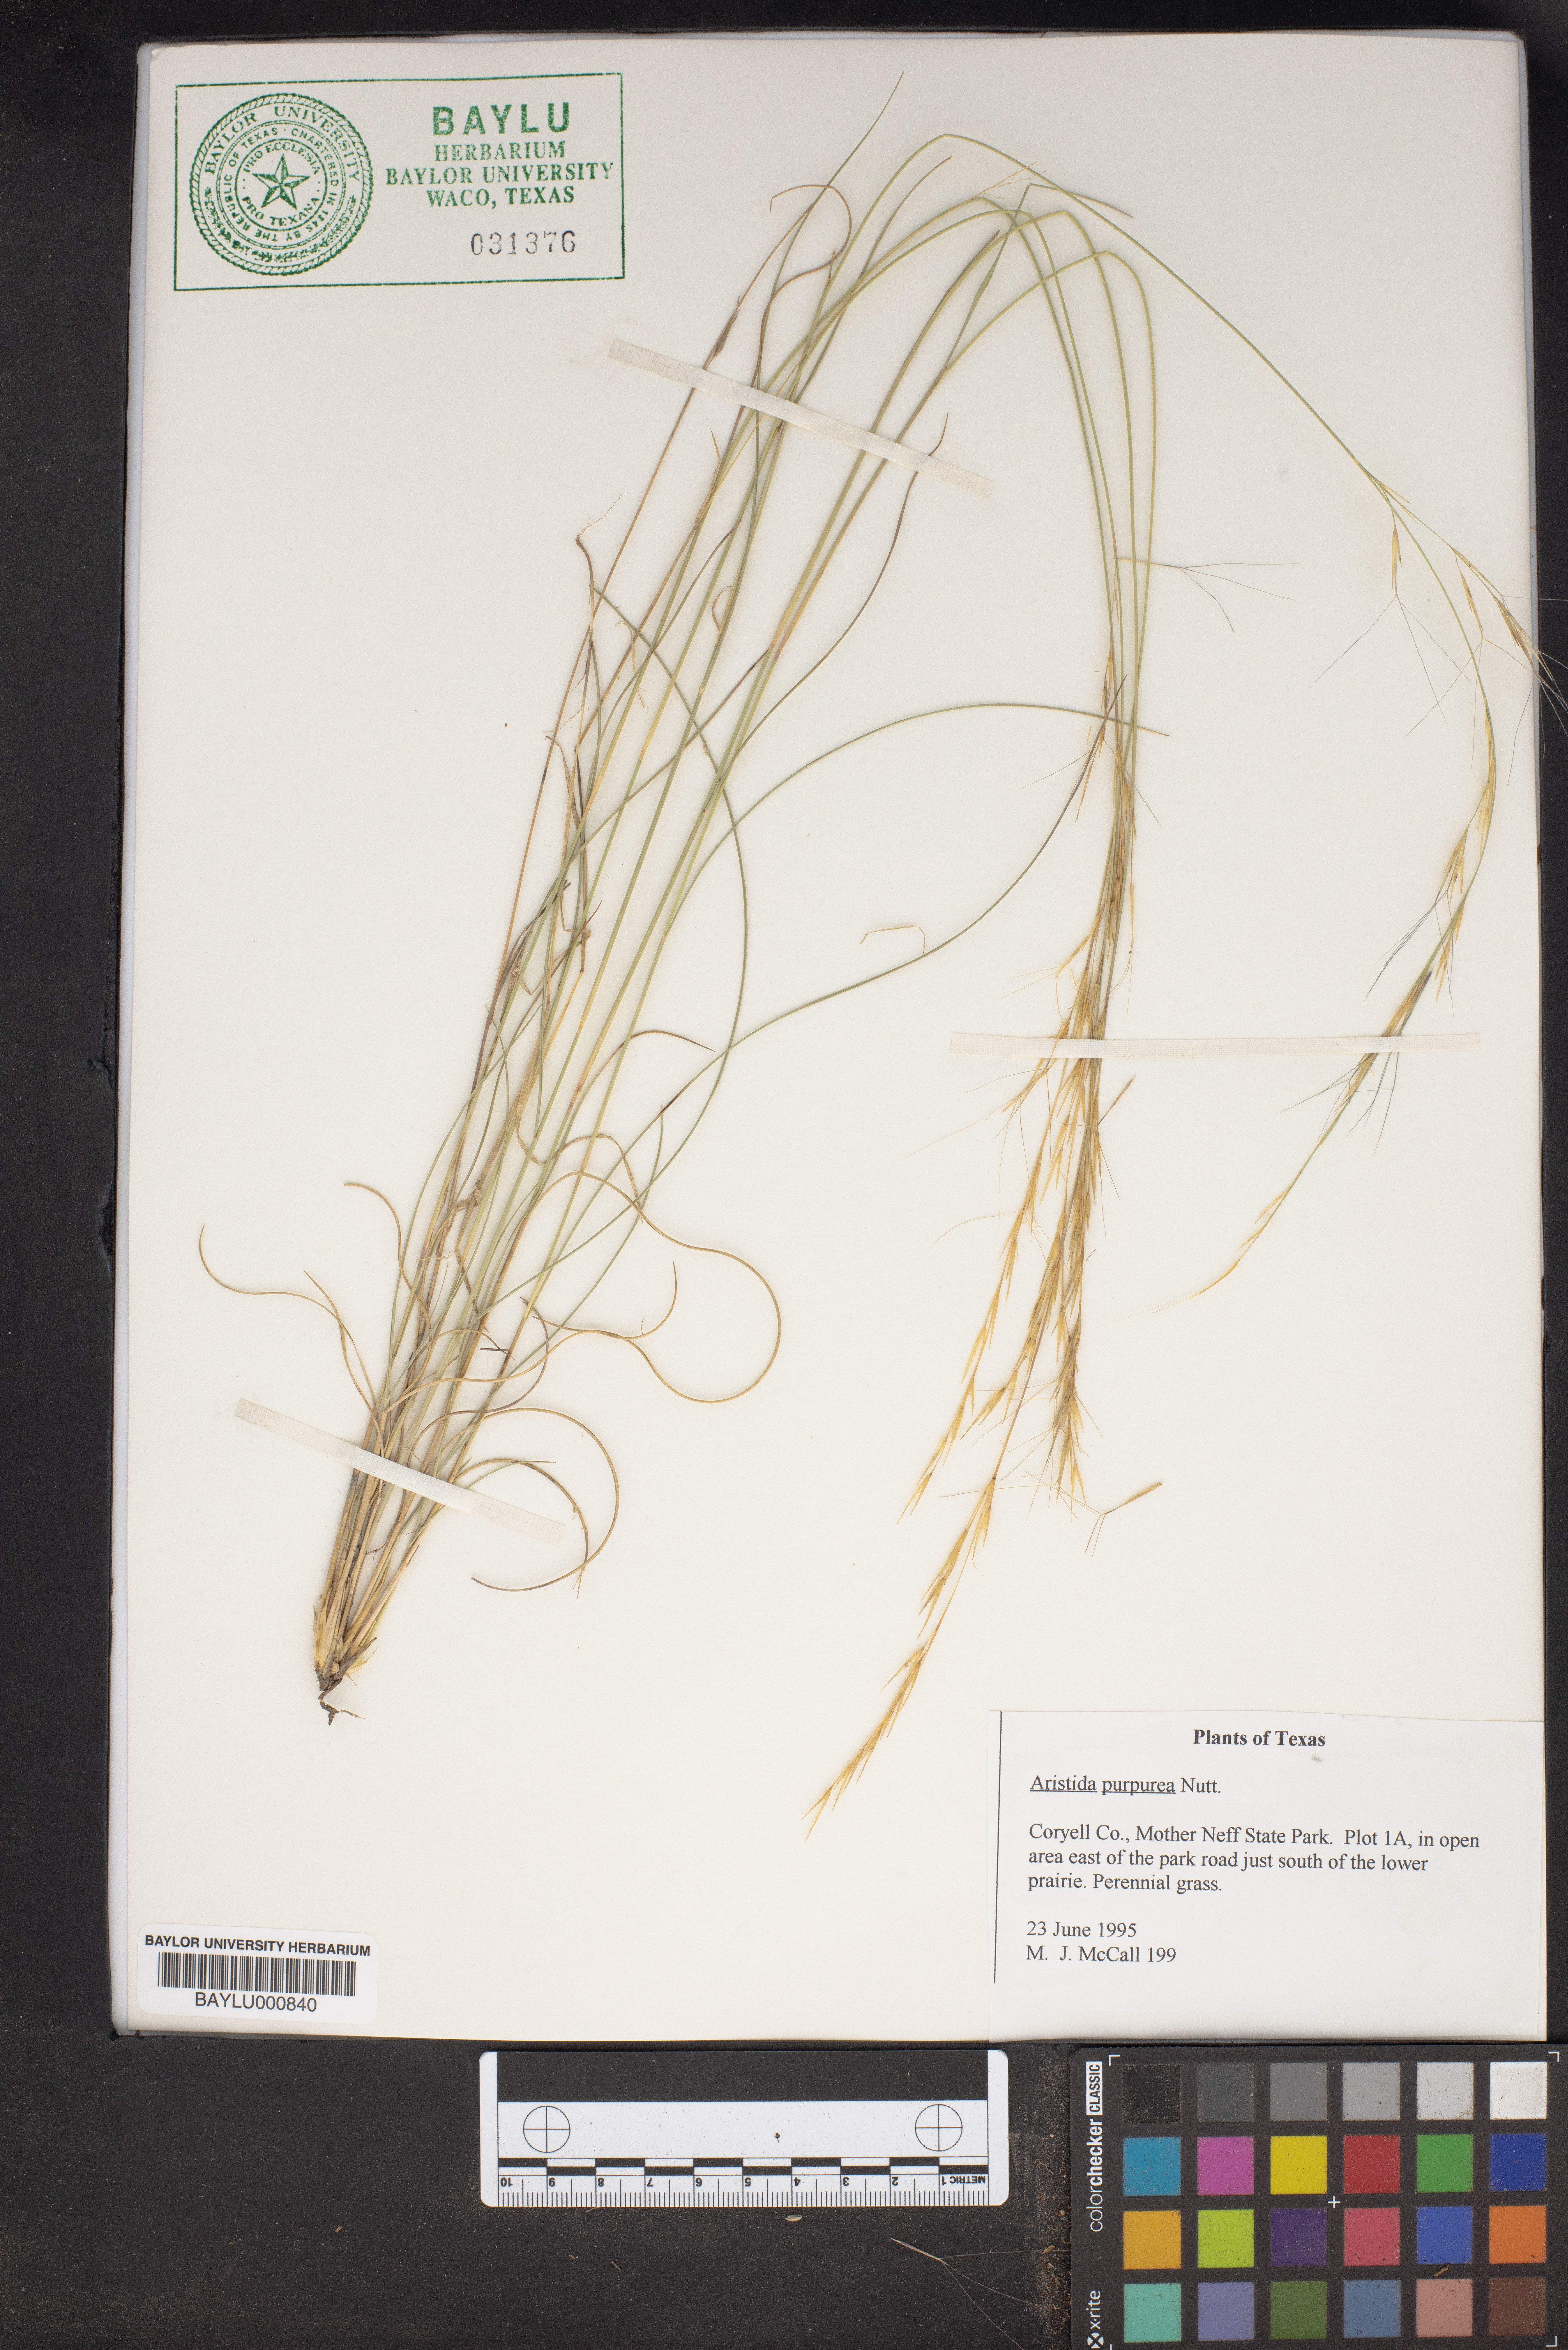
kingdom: Plantae
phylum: Tracheophyta
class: Liliopsida
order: Poales
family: Poaceae
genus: Aristida
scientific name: Aristida purpurea
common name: Purple threeawn
